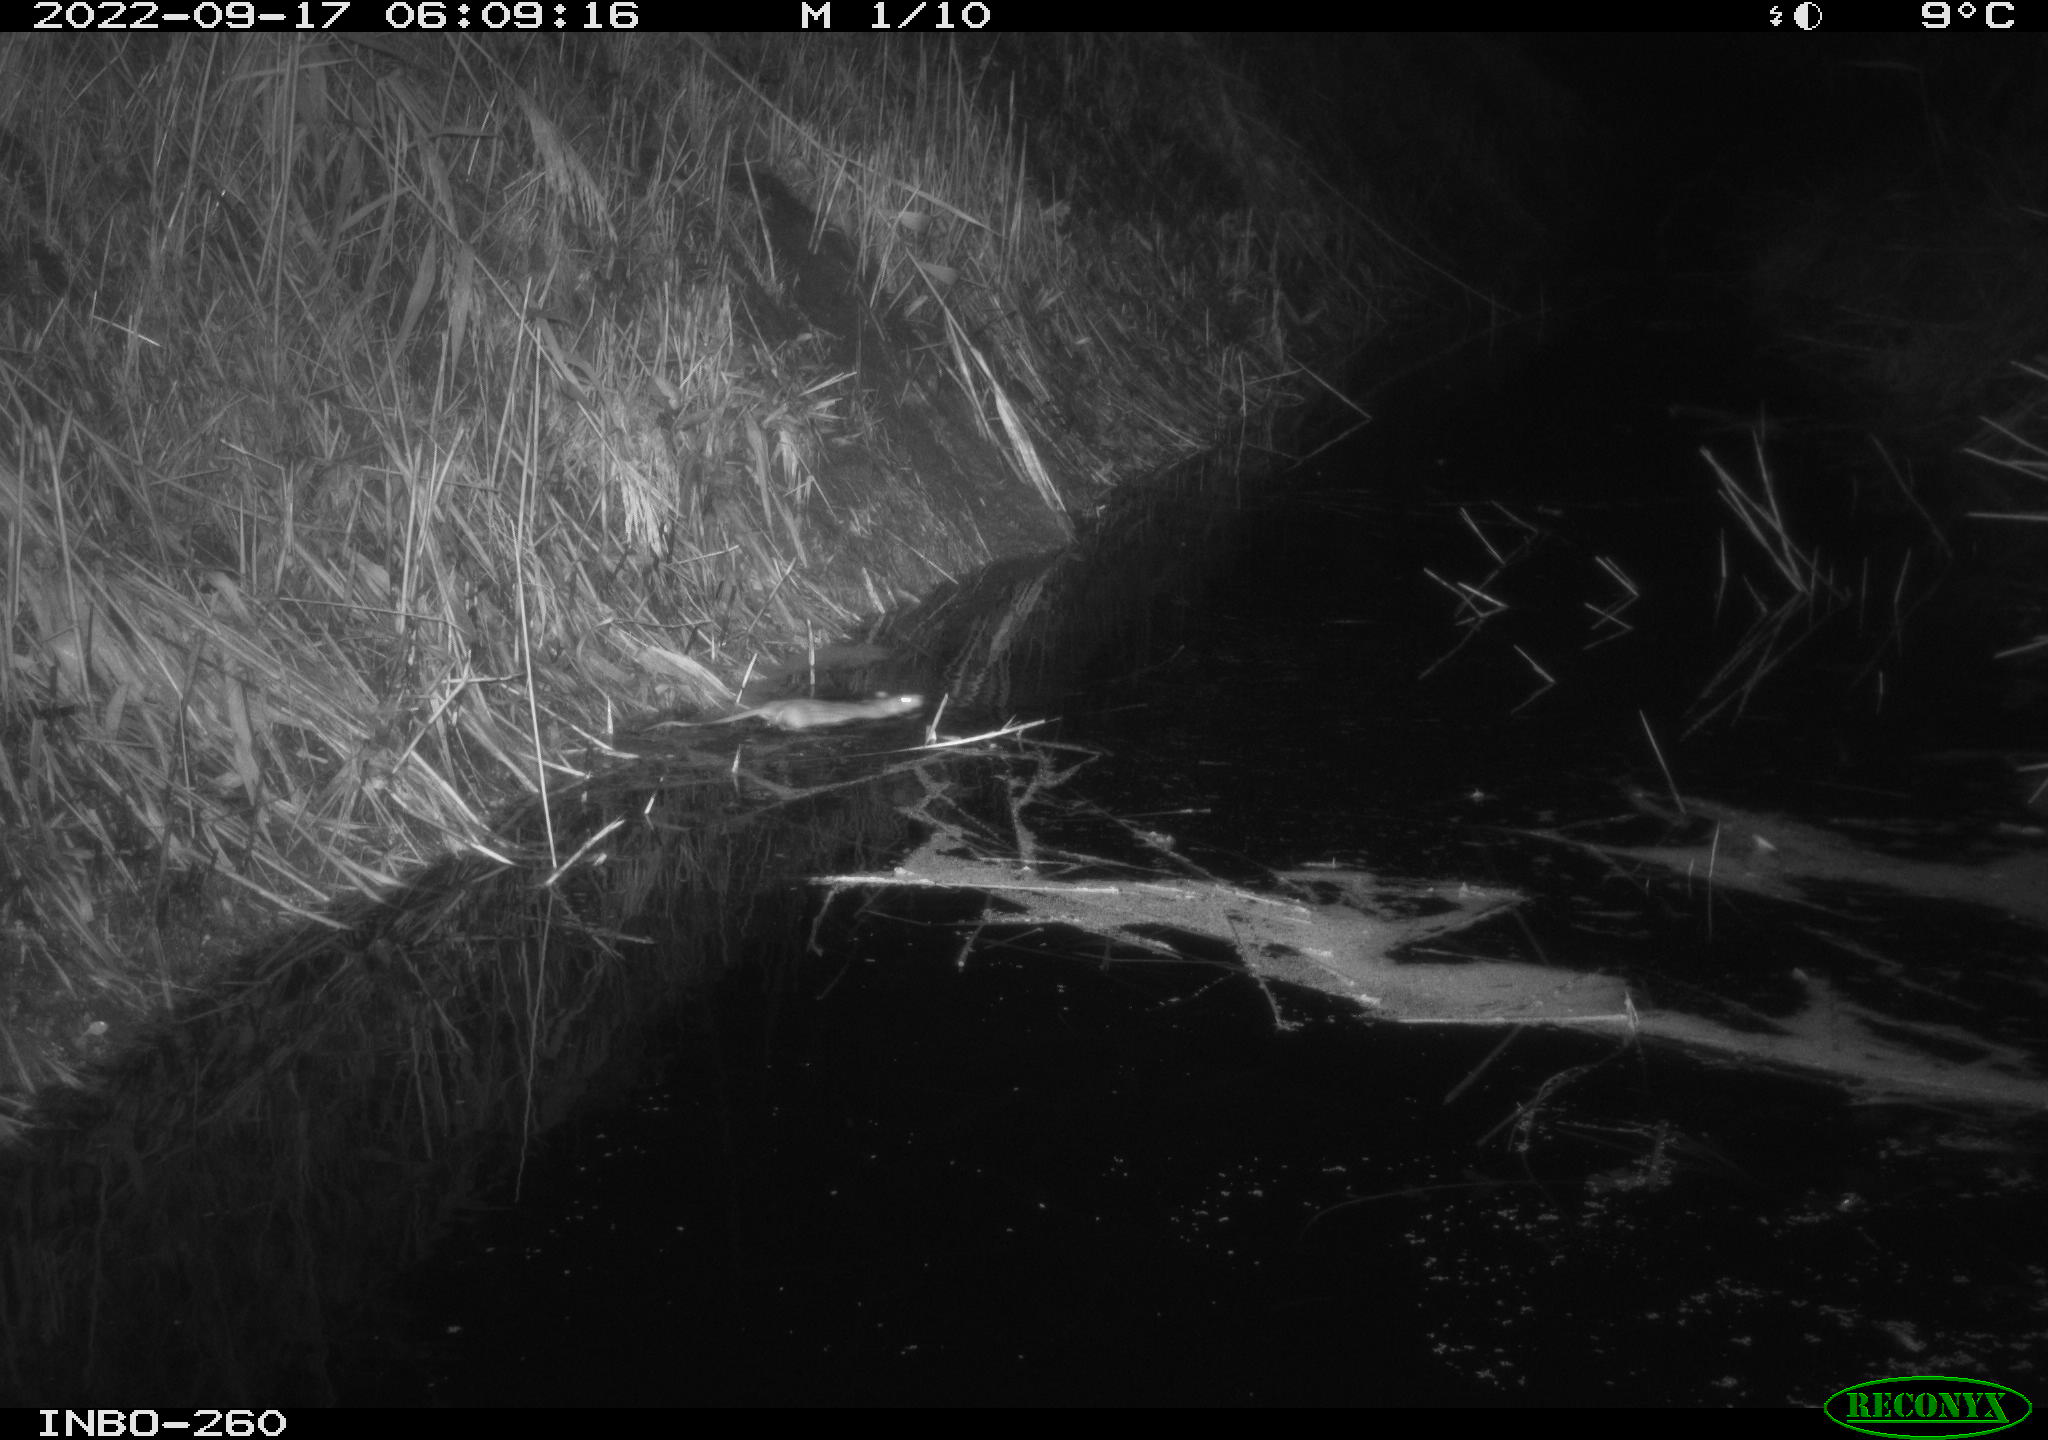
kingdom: Animalia
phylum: Chordata
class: Mammalia
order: Rodentia
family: Muridae
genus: Rattus
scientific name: Rattus norvegicus
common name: Brown rat
